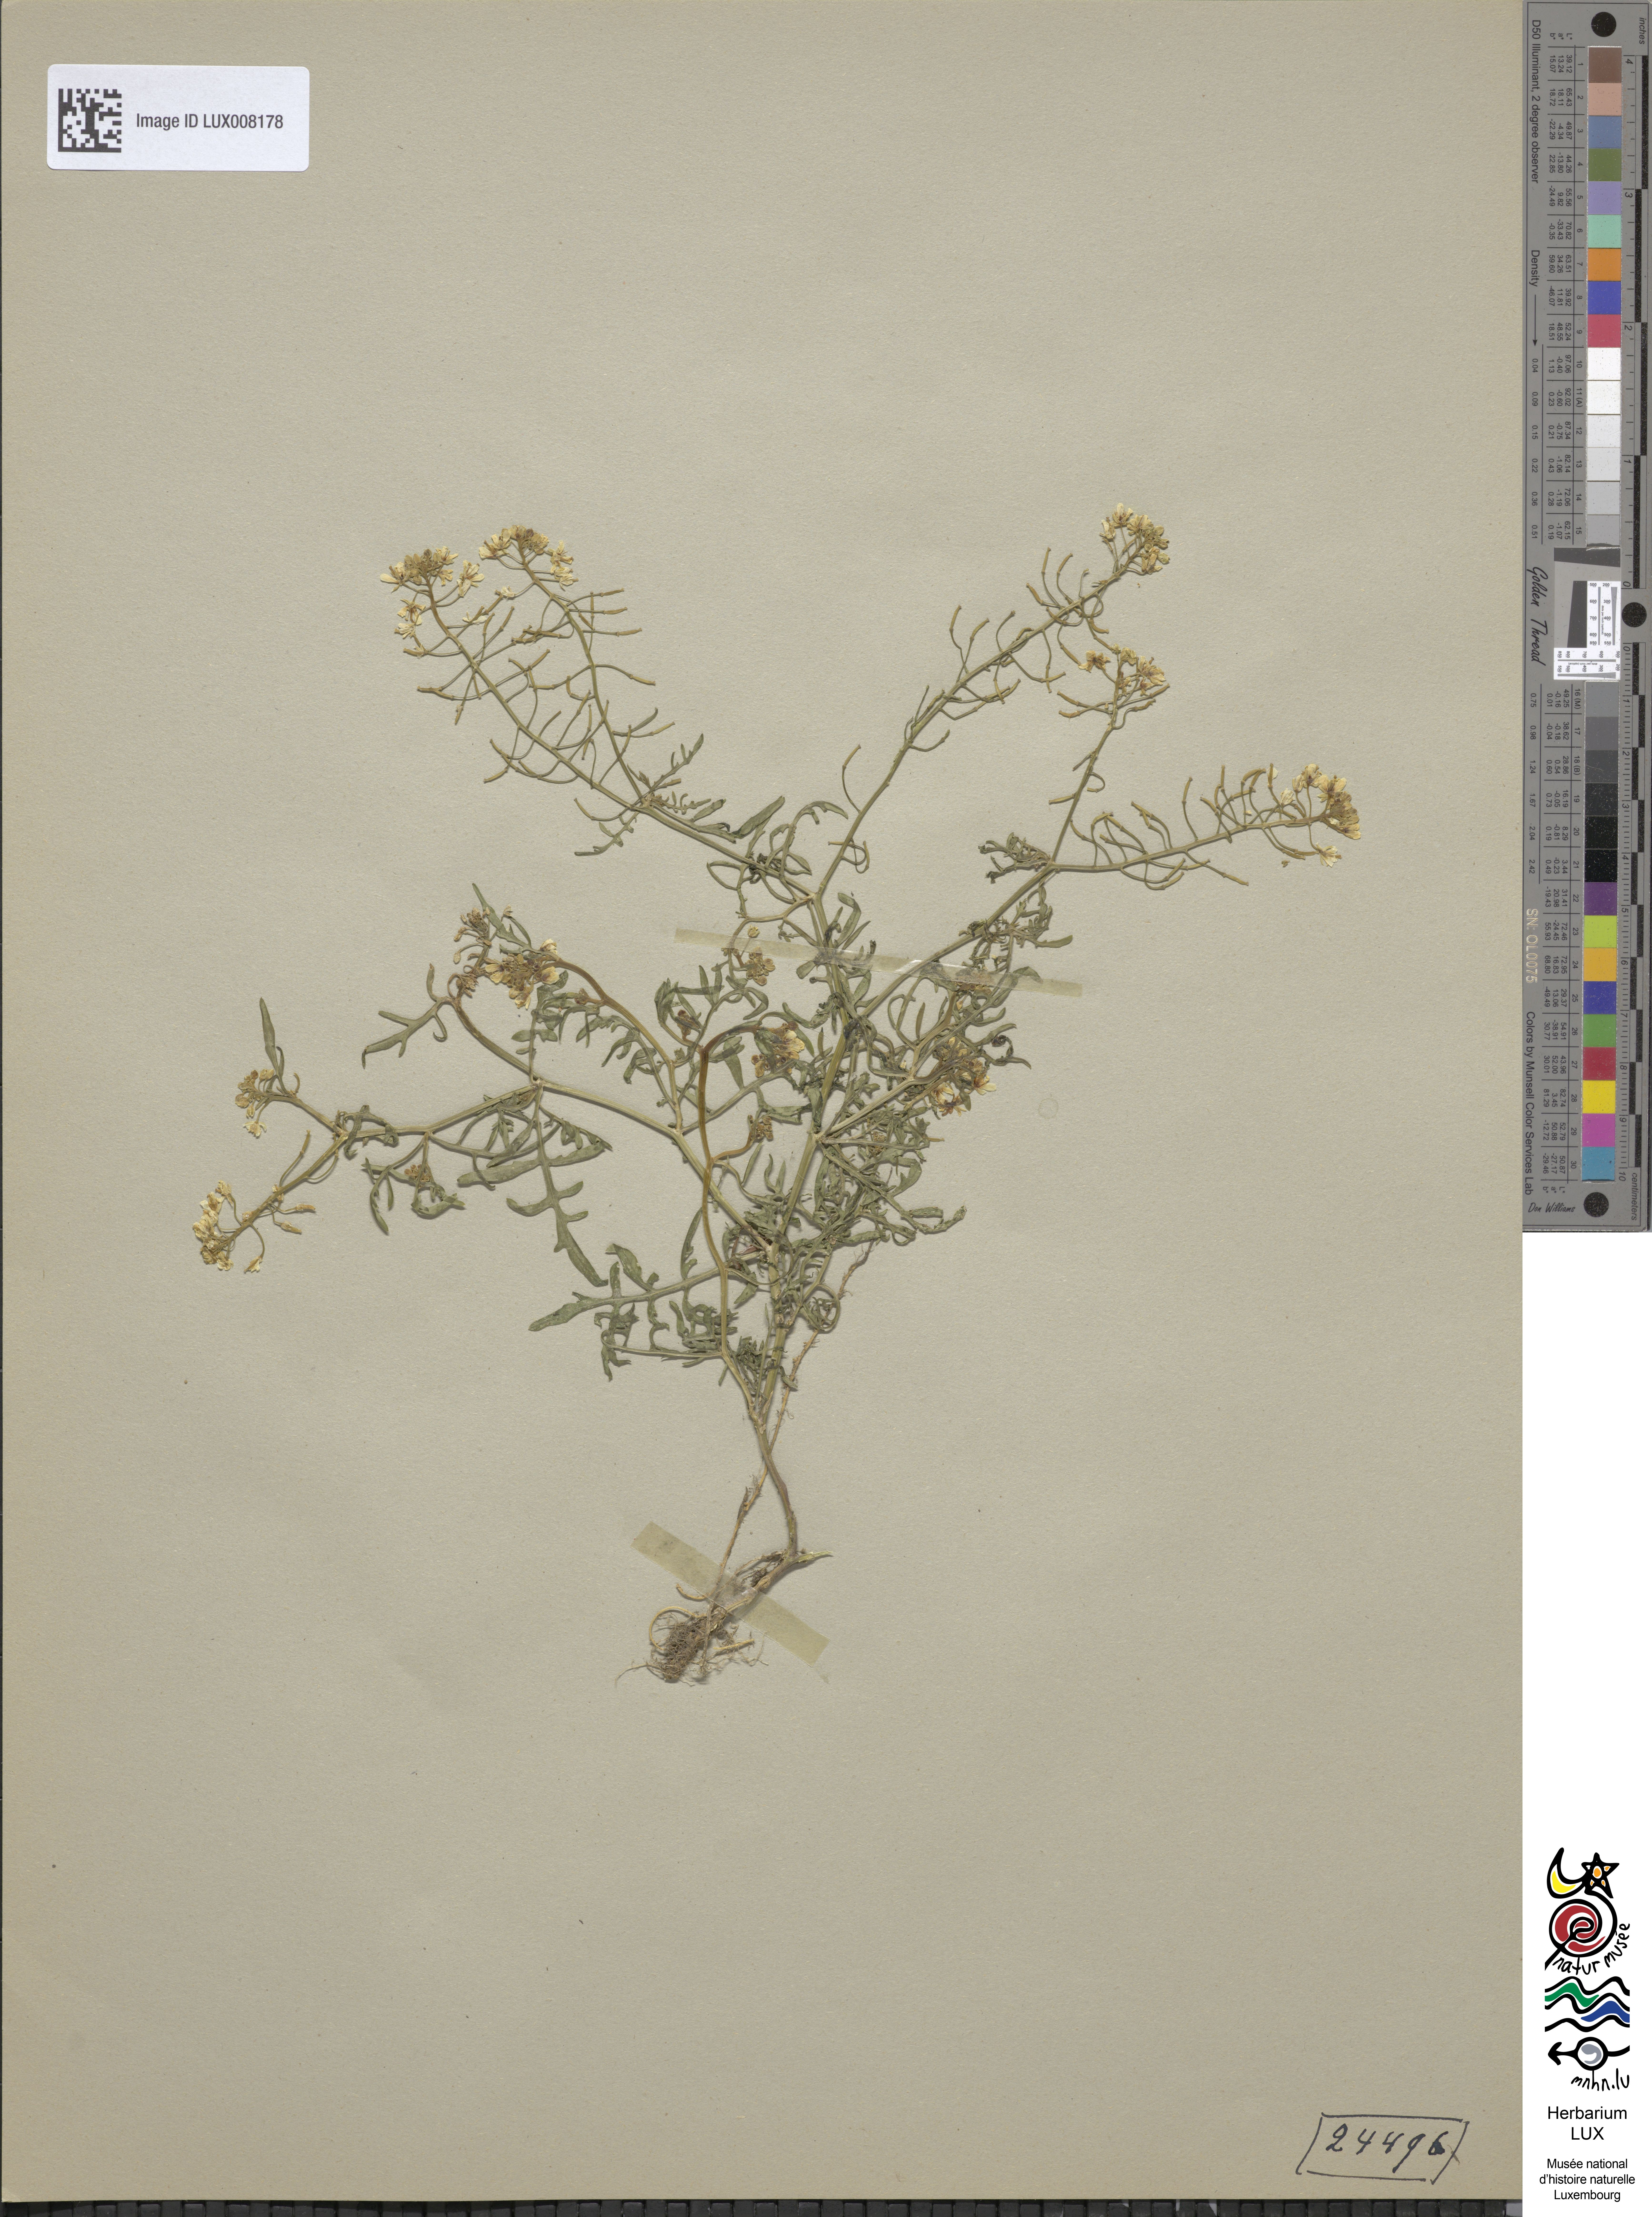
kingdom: Plantae
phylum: Tracheophyta
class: Magnoliopsida
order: Brassicales
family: Brassicaceae
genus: Rorippa
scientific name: Rorippa sylvestris
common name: Creeping yellowcress
